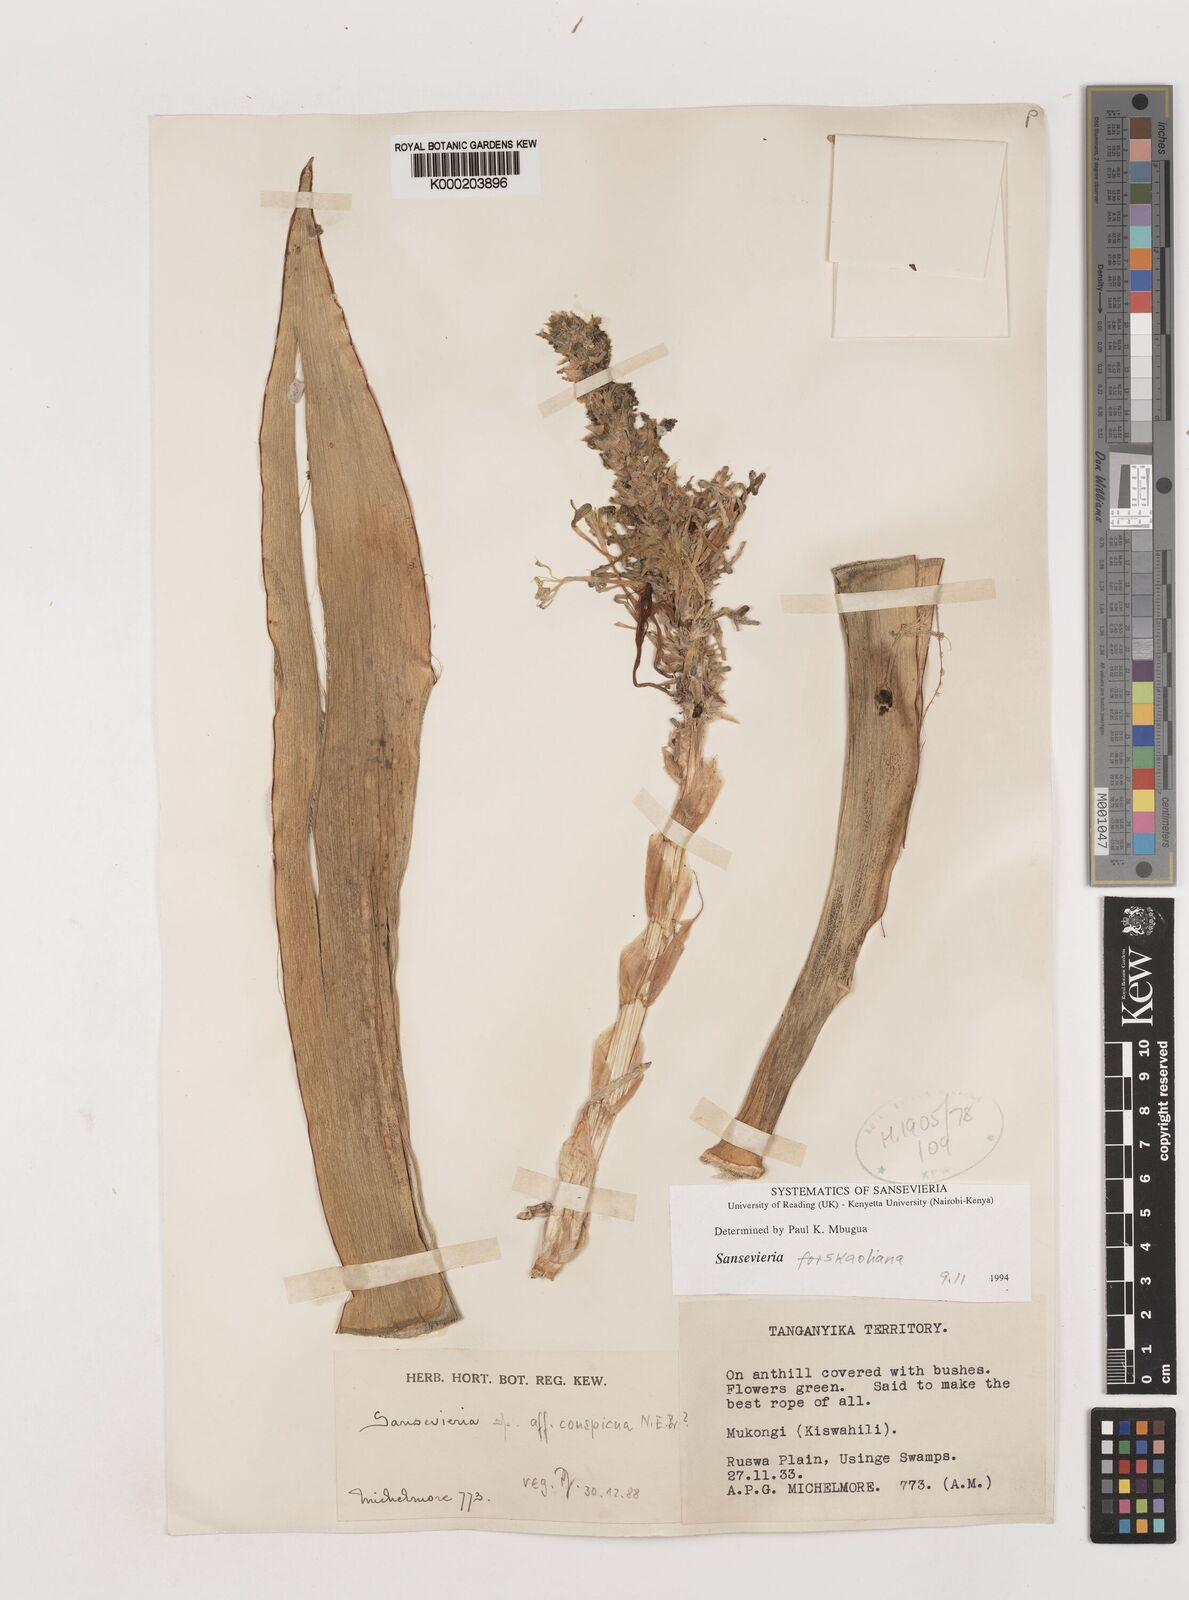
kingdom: Plantae
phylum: Tracheophyta
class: Liliopsida
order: Asparagales
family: Asparagaceae
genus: Dracaena
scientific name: Dracaena conspicua
